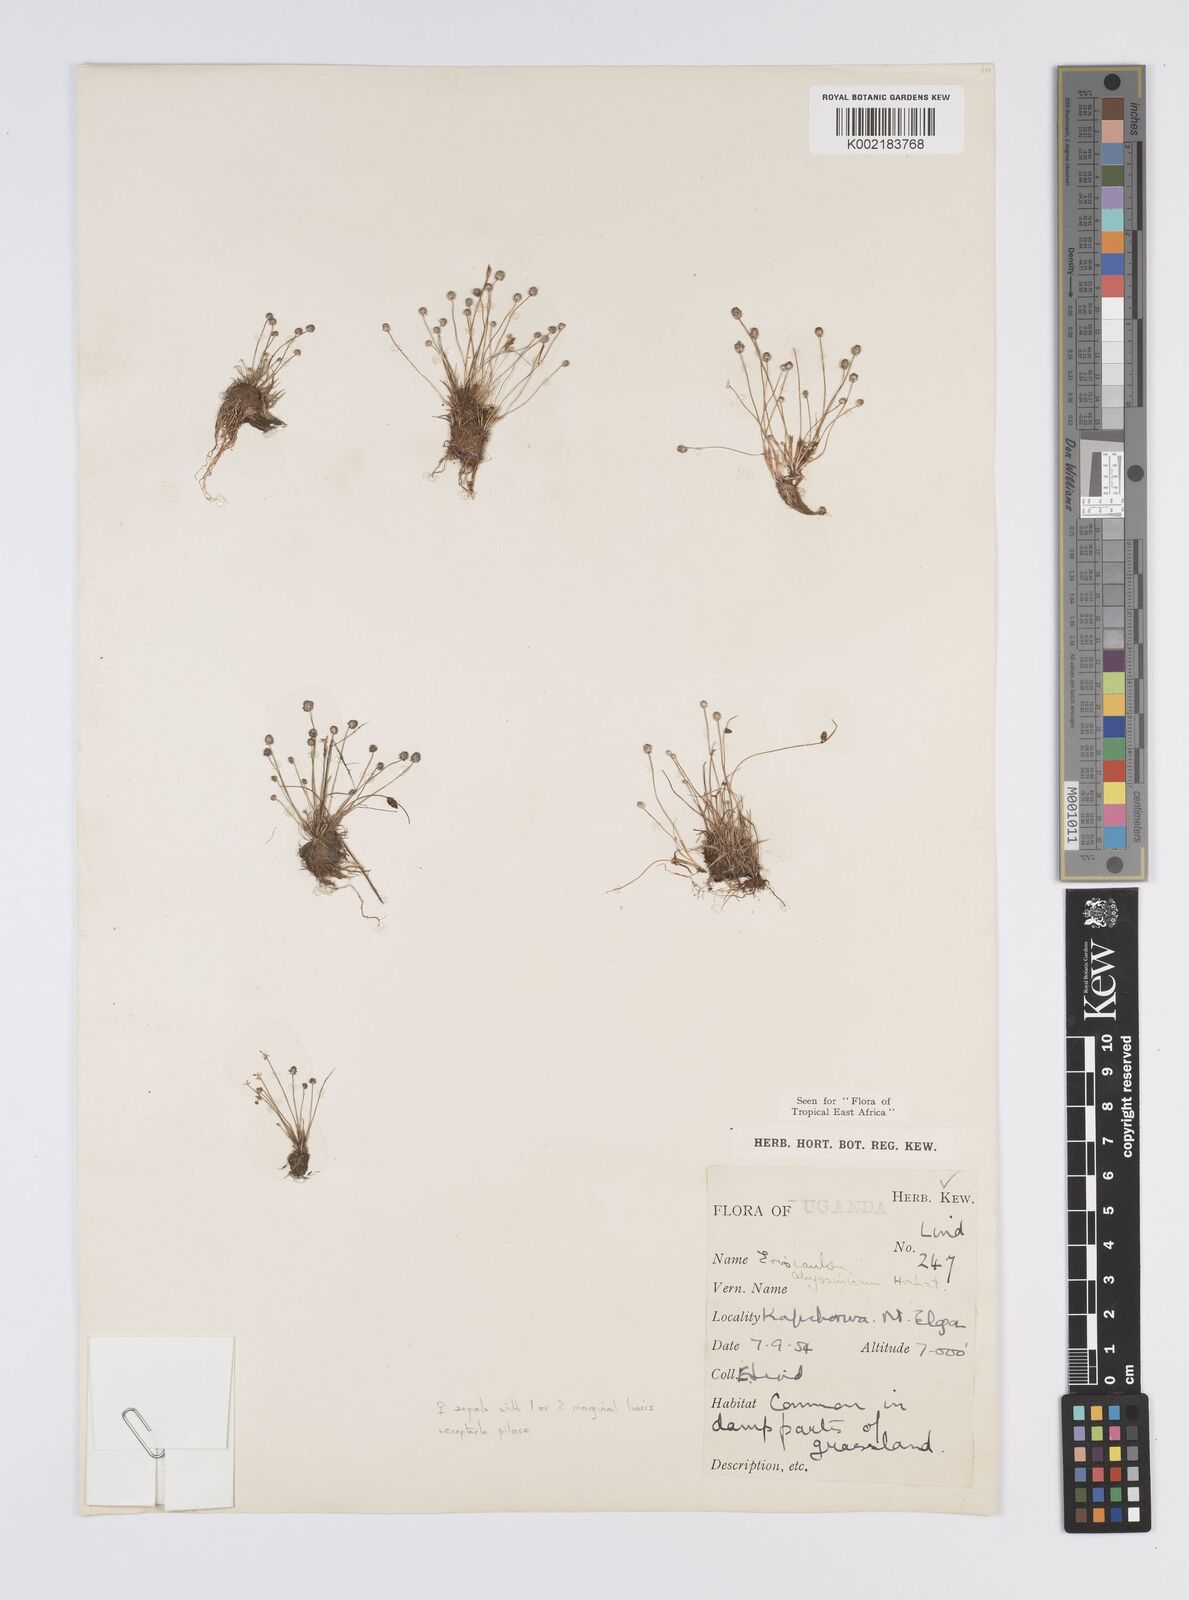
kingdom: Plantae
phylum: Tracheophyta
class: Liliopsida
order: Poales
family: Eriocaulaceae
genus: Eriocaulon
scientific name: Eriocaulon abyssinicum
